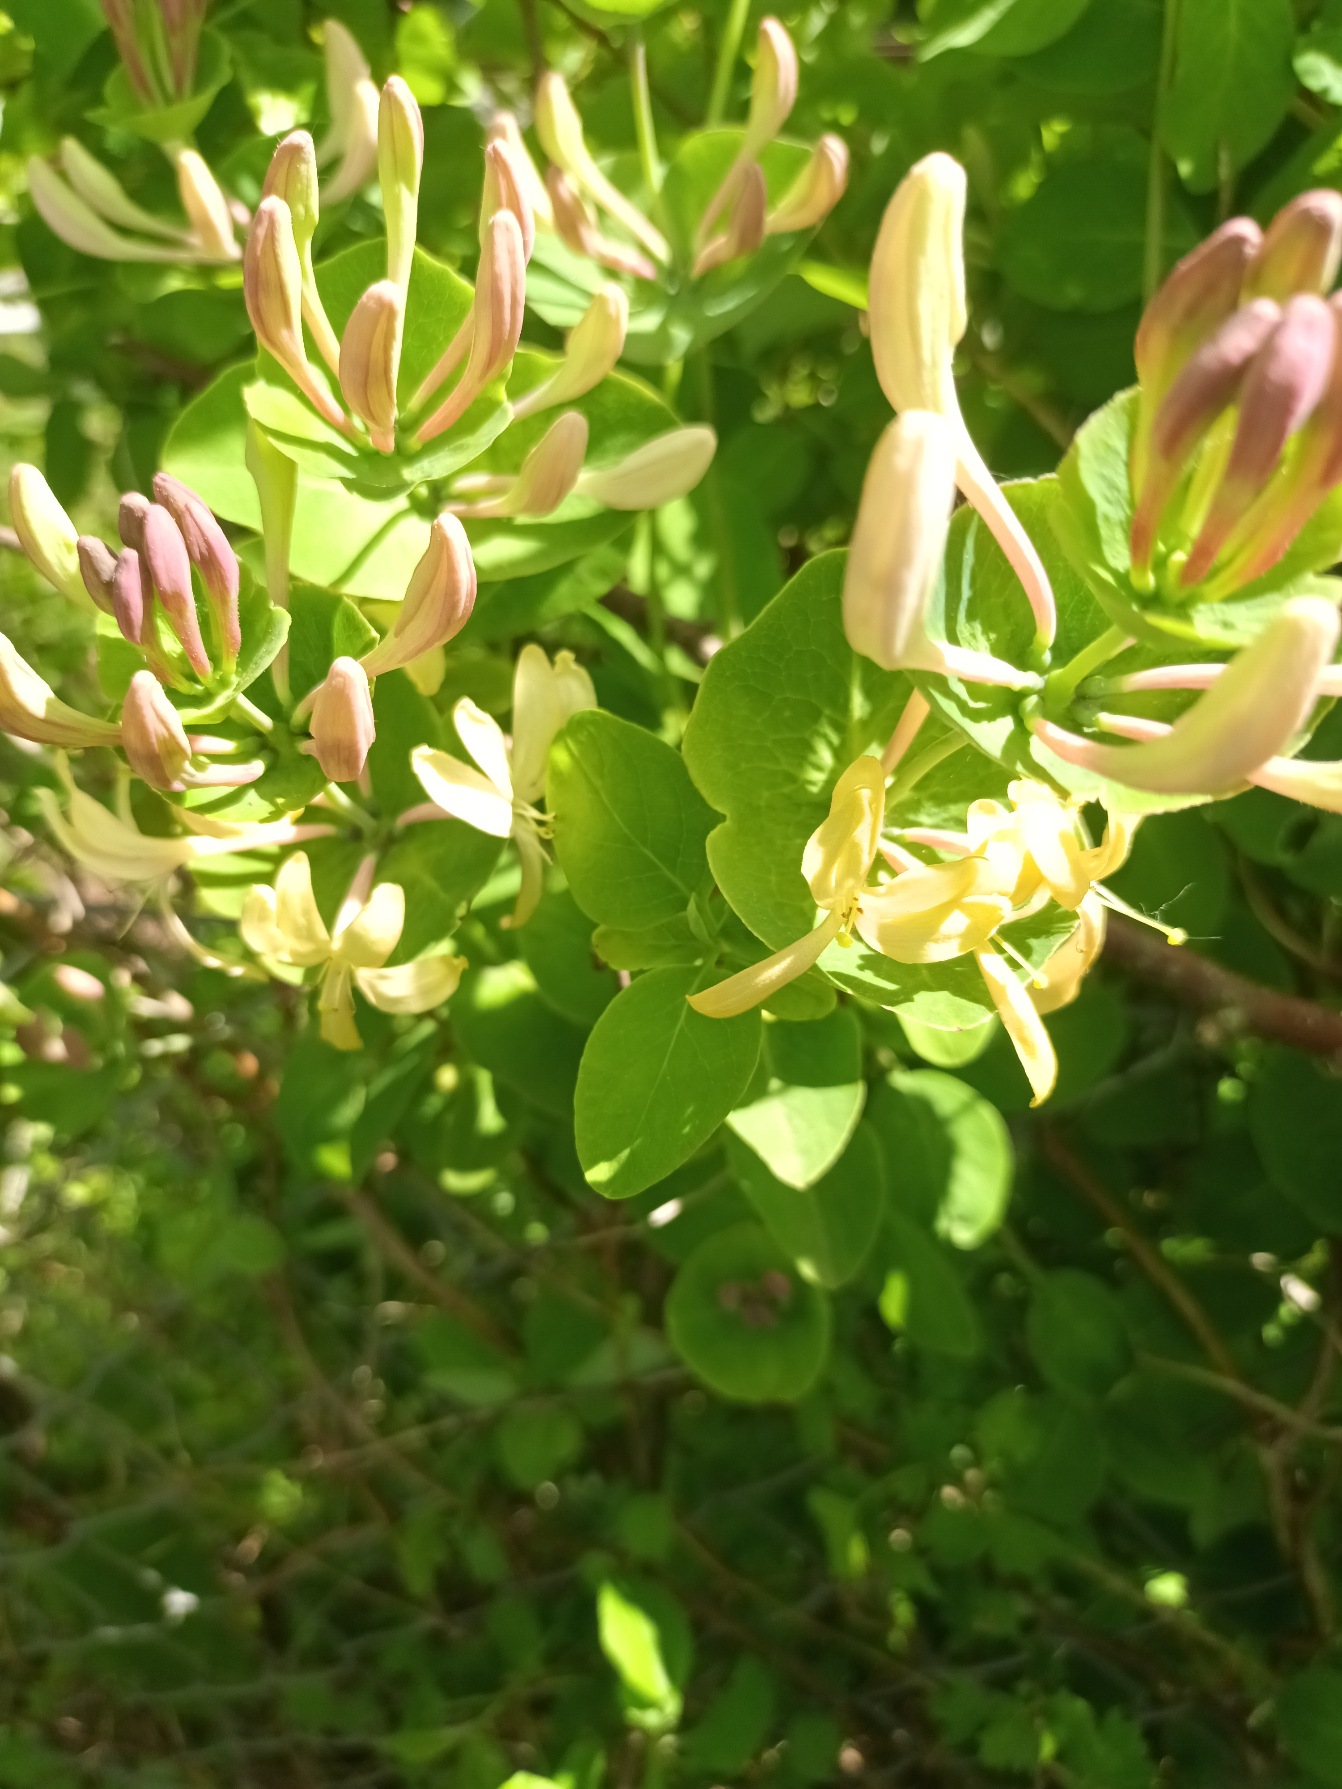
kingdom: Plantae
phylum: Tracheophyta
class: Magnoliopsida
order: Dipsacales
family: Caprifoliaceae
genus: Lonicera
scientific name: Lonicera caprifolium
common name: Ægte kaprifolie
